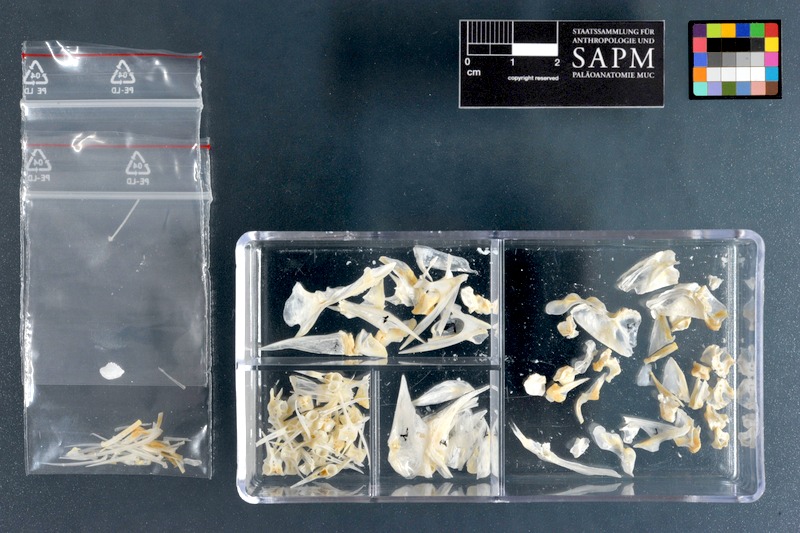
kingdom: Animalia
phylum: Chordata
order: Perciformes
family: Gerreidae
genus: Eucinostomus
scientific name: Eucinostomus melanopterus
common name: Flagfin mojarra
